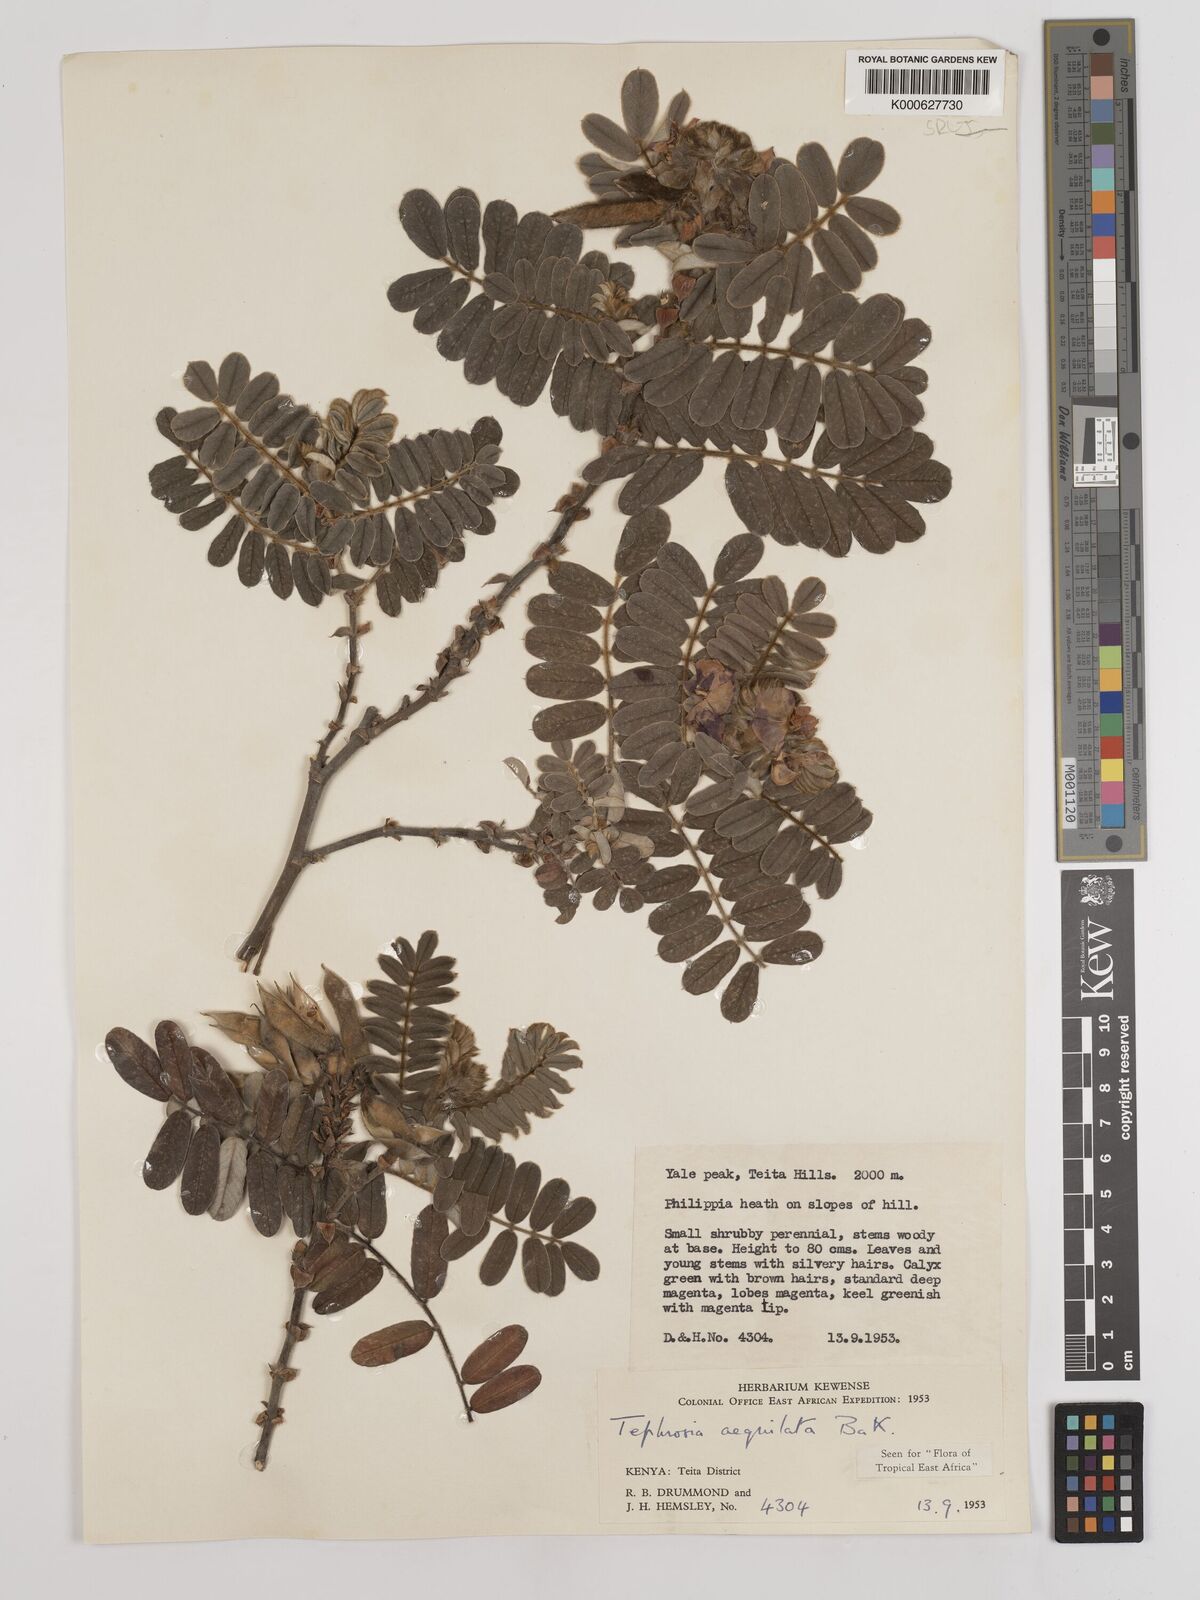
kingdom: Plantae
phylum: Tracheophyta
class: Magnoliopsida
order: Fabales
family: Fabaceae
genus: Tephrosia
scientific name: Tephrosia aequilata
